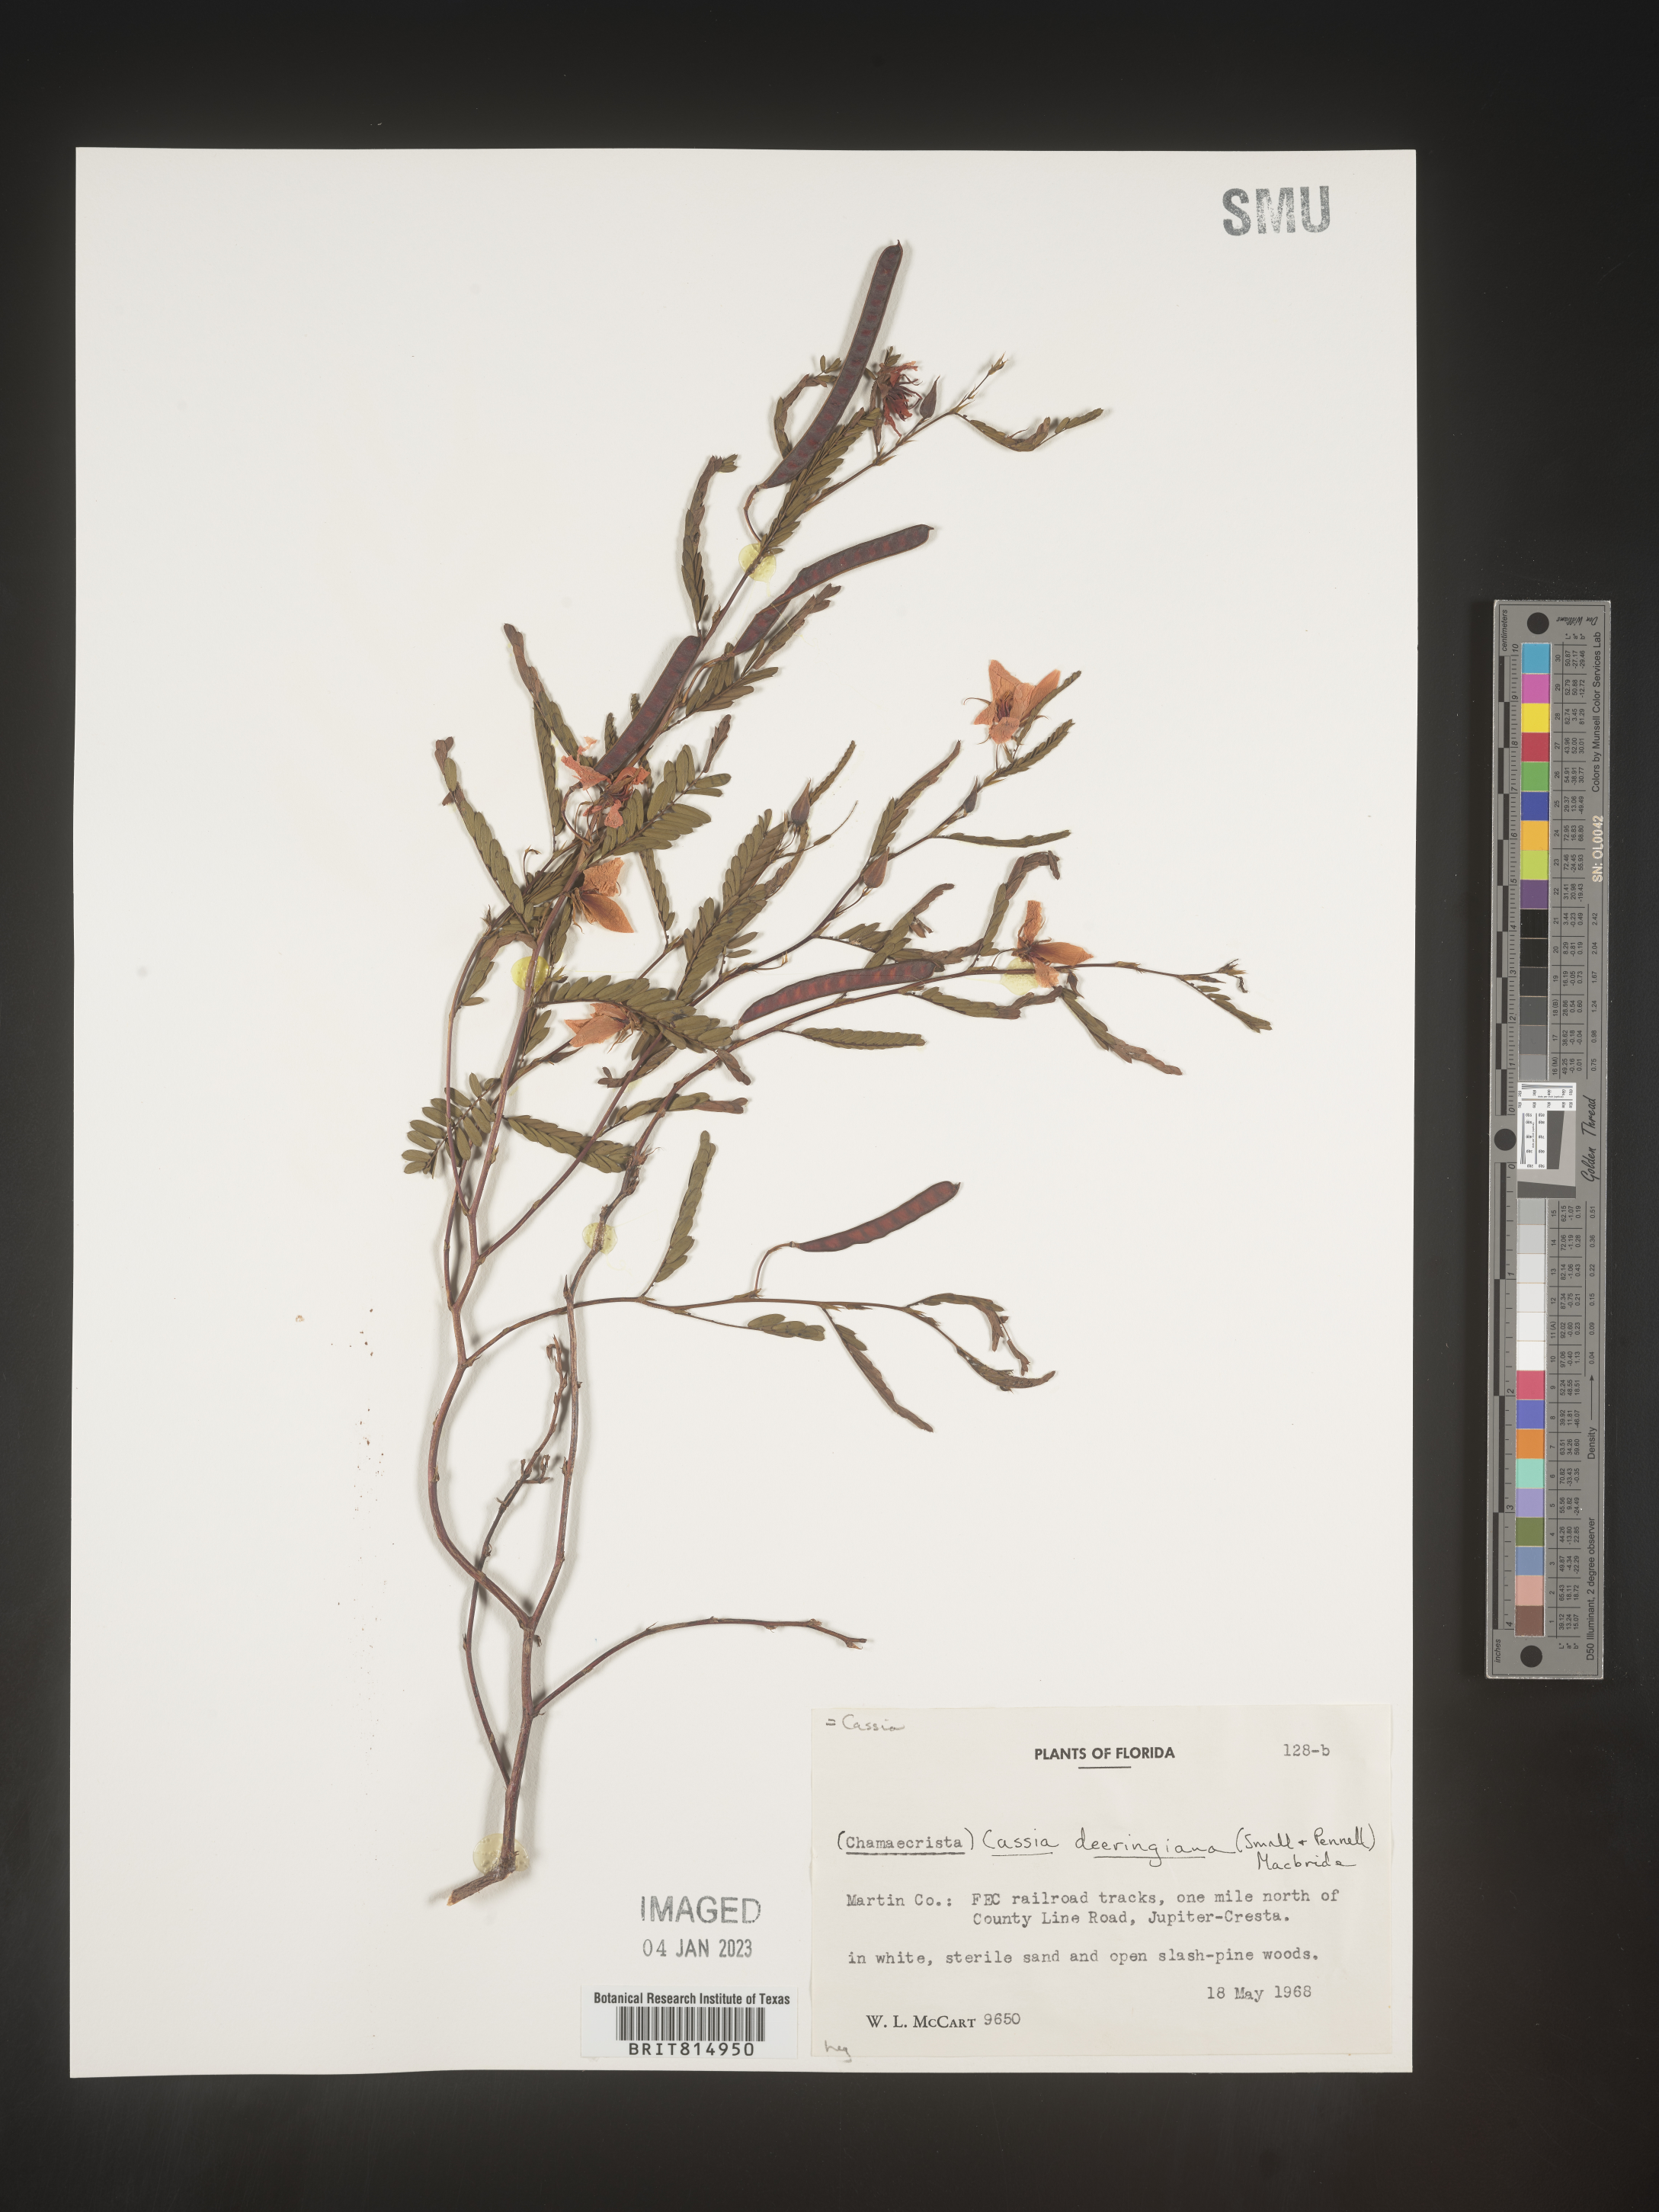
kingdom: Plantae
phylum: Tracheophyta
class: Magnoliopsida
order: Fabales
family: Fabaceae
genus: Cassia
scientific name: Cassia
